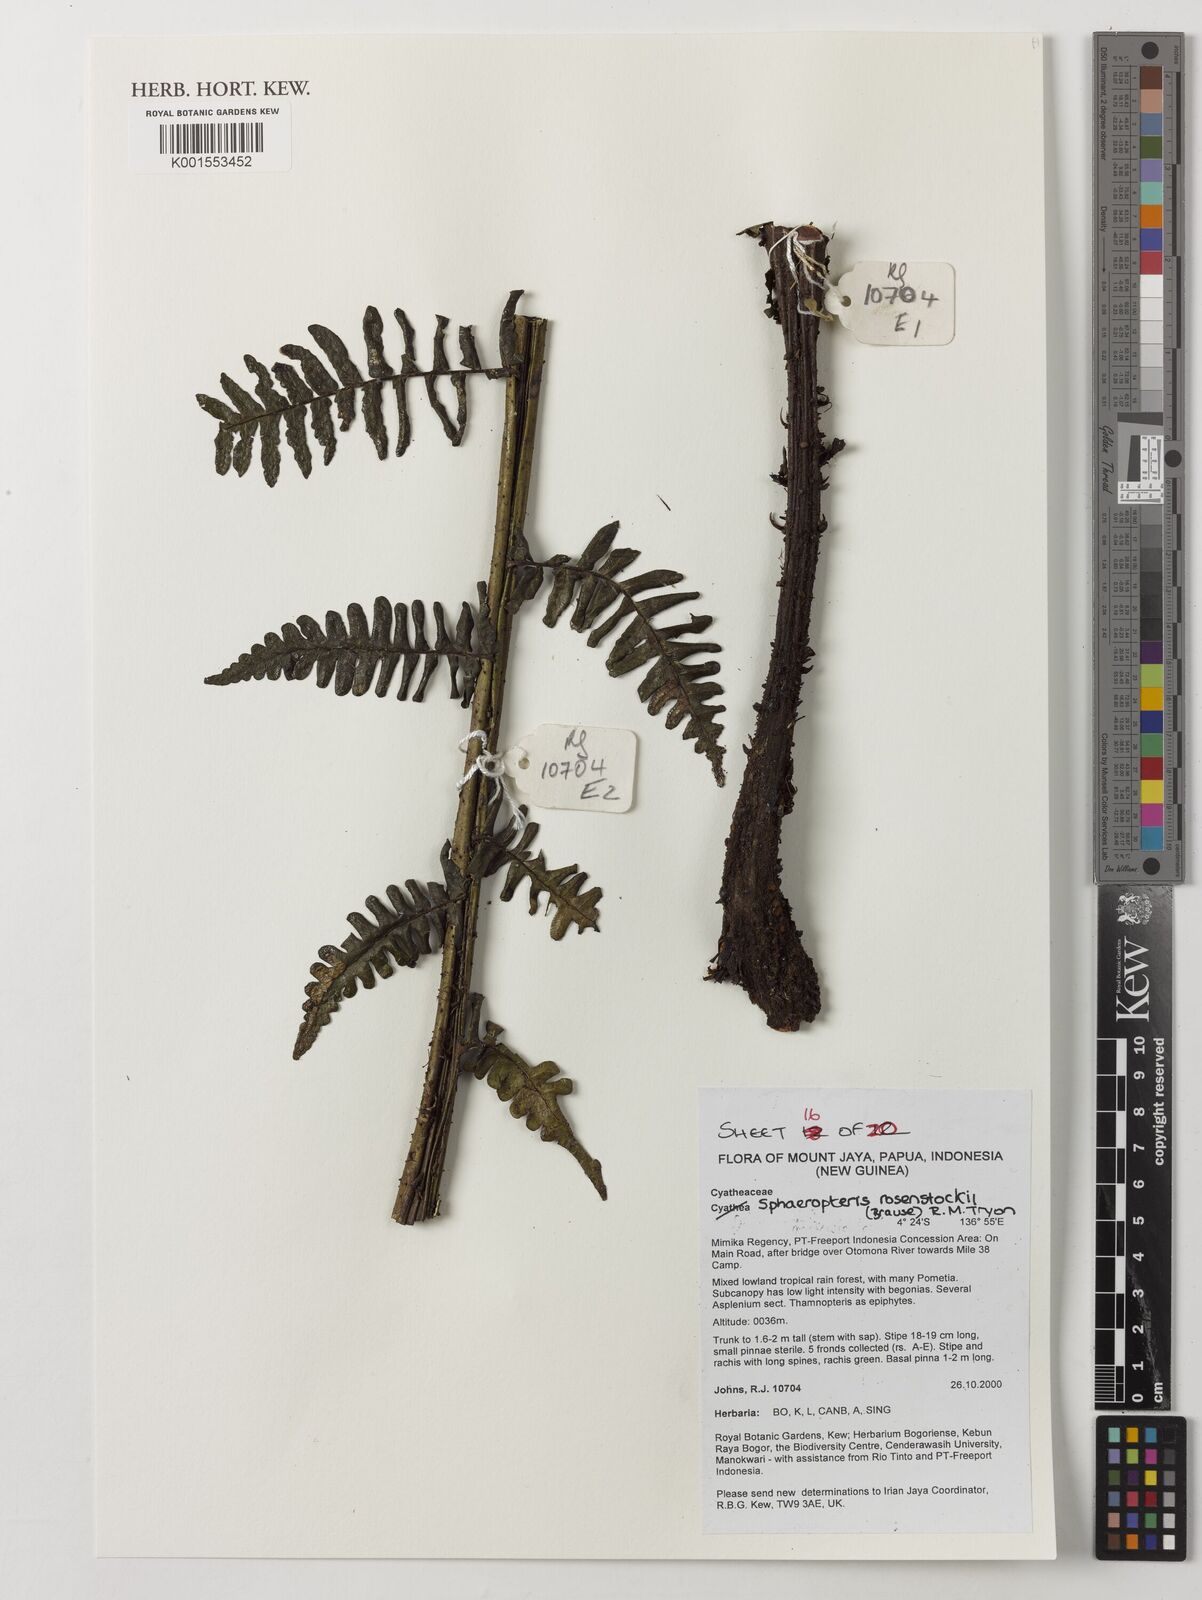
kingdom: Plantae
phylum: Tracheophyta
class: Polypodiopsida
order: Cyatheales
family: Cyatheaceae
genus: Sphaeropteris
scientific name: Sphaeropteris rosenstockii
